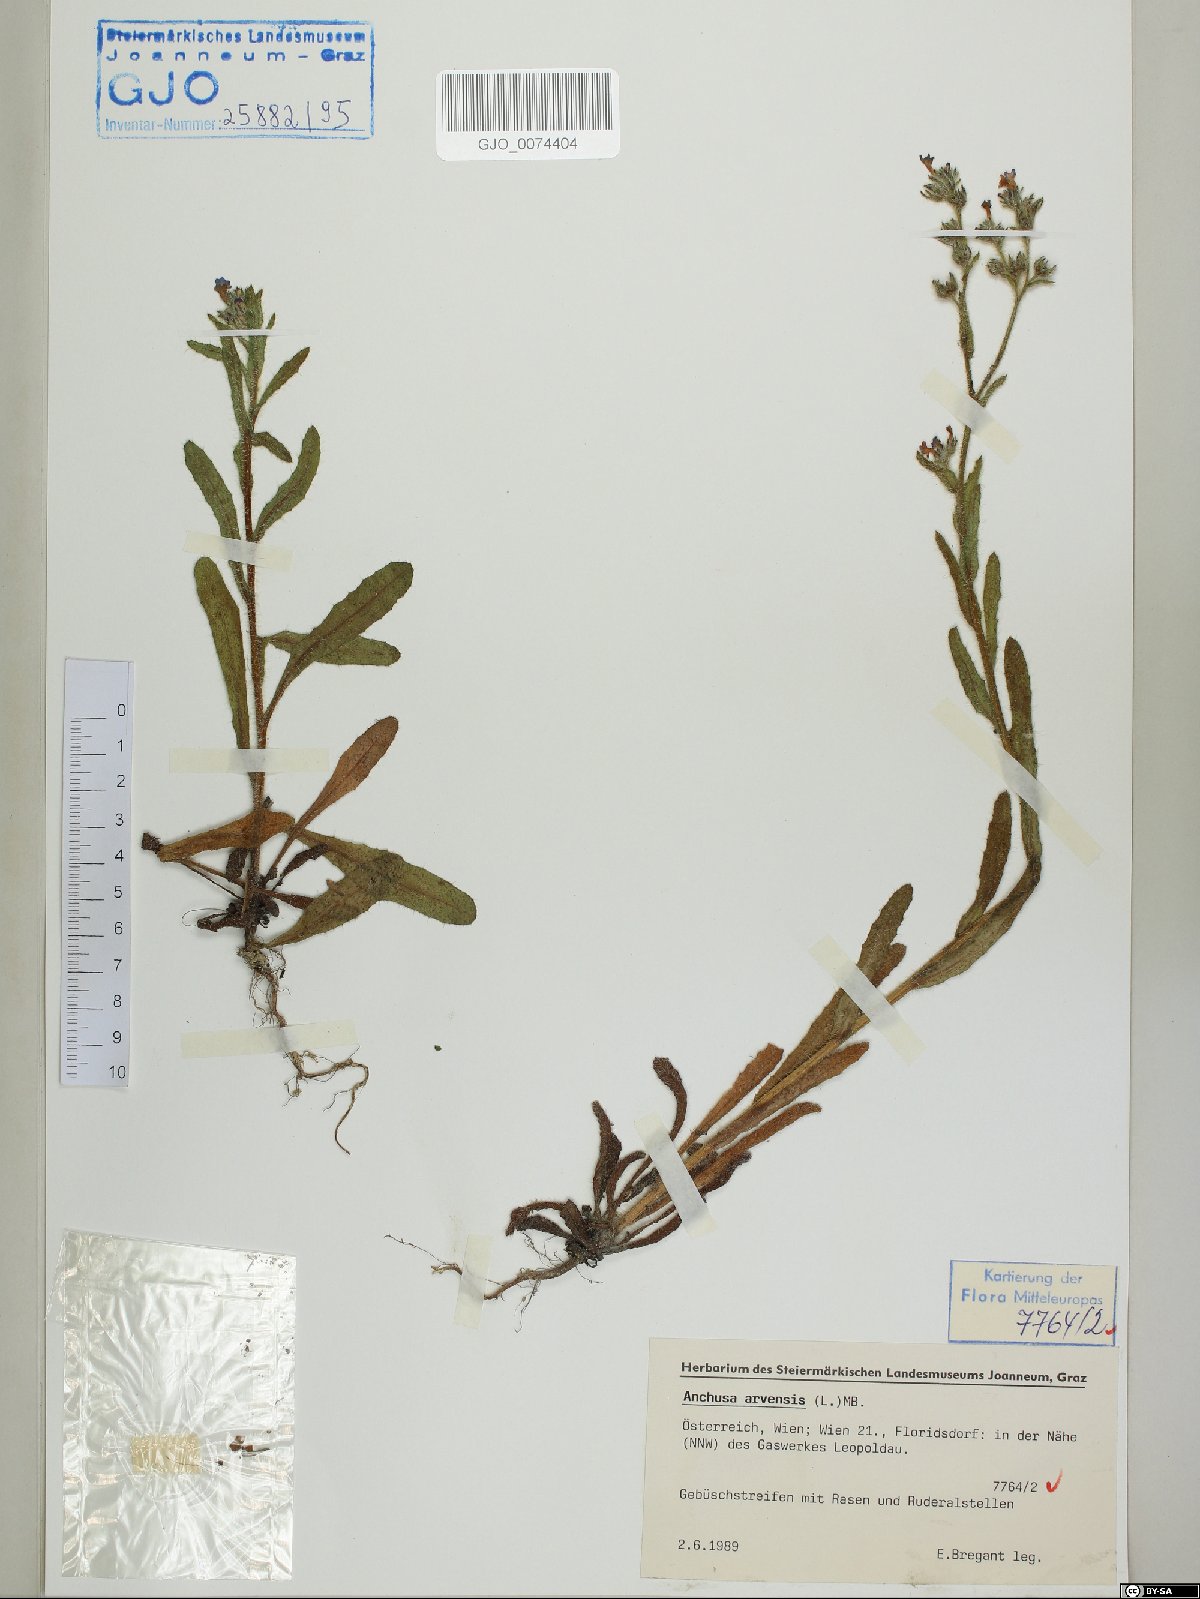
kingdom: Plantae
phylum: Tracheophyta
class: Magnoliopsida
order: Boraginales
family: Boraginaceae
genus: Lycopsis
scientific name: Lycopsis arvensis
